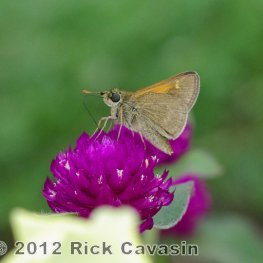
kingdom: Animalia
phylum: Arthropoda
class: Insecta
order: Lepidoptera
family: Hesperiidae
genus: Polites
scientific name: Polites themistocles
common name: Tawny-edged Skipper
